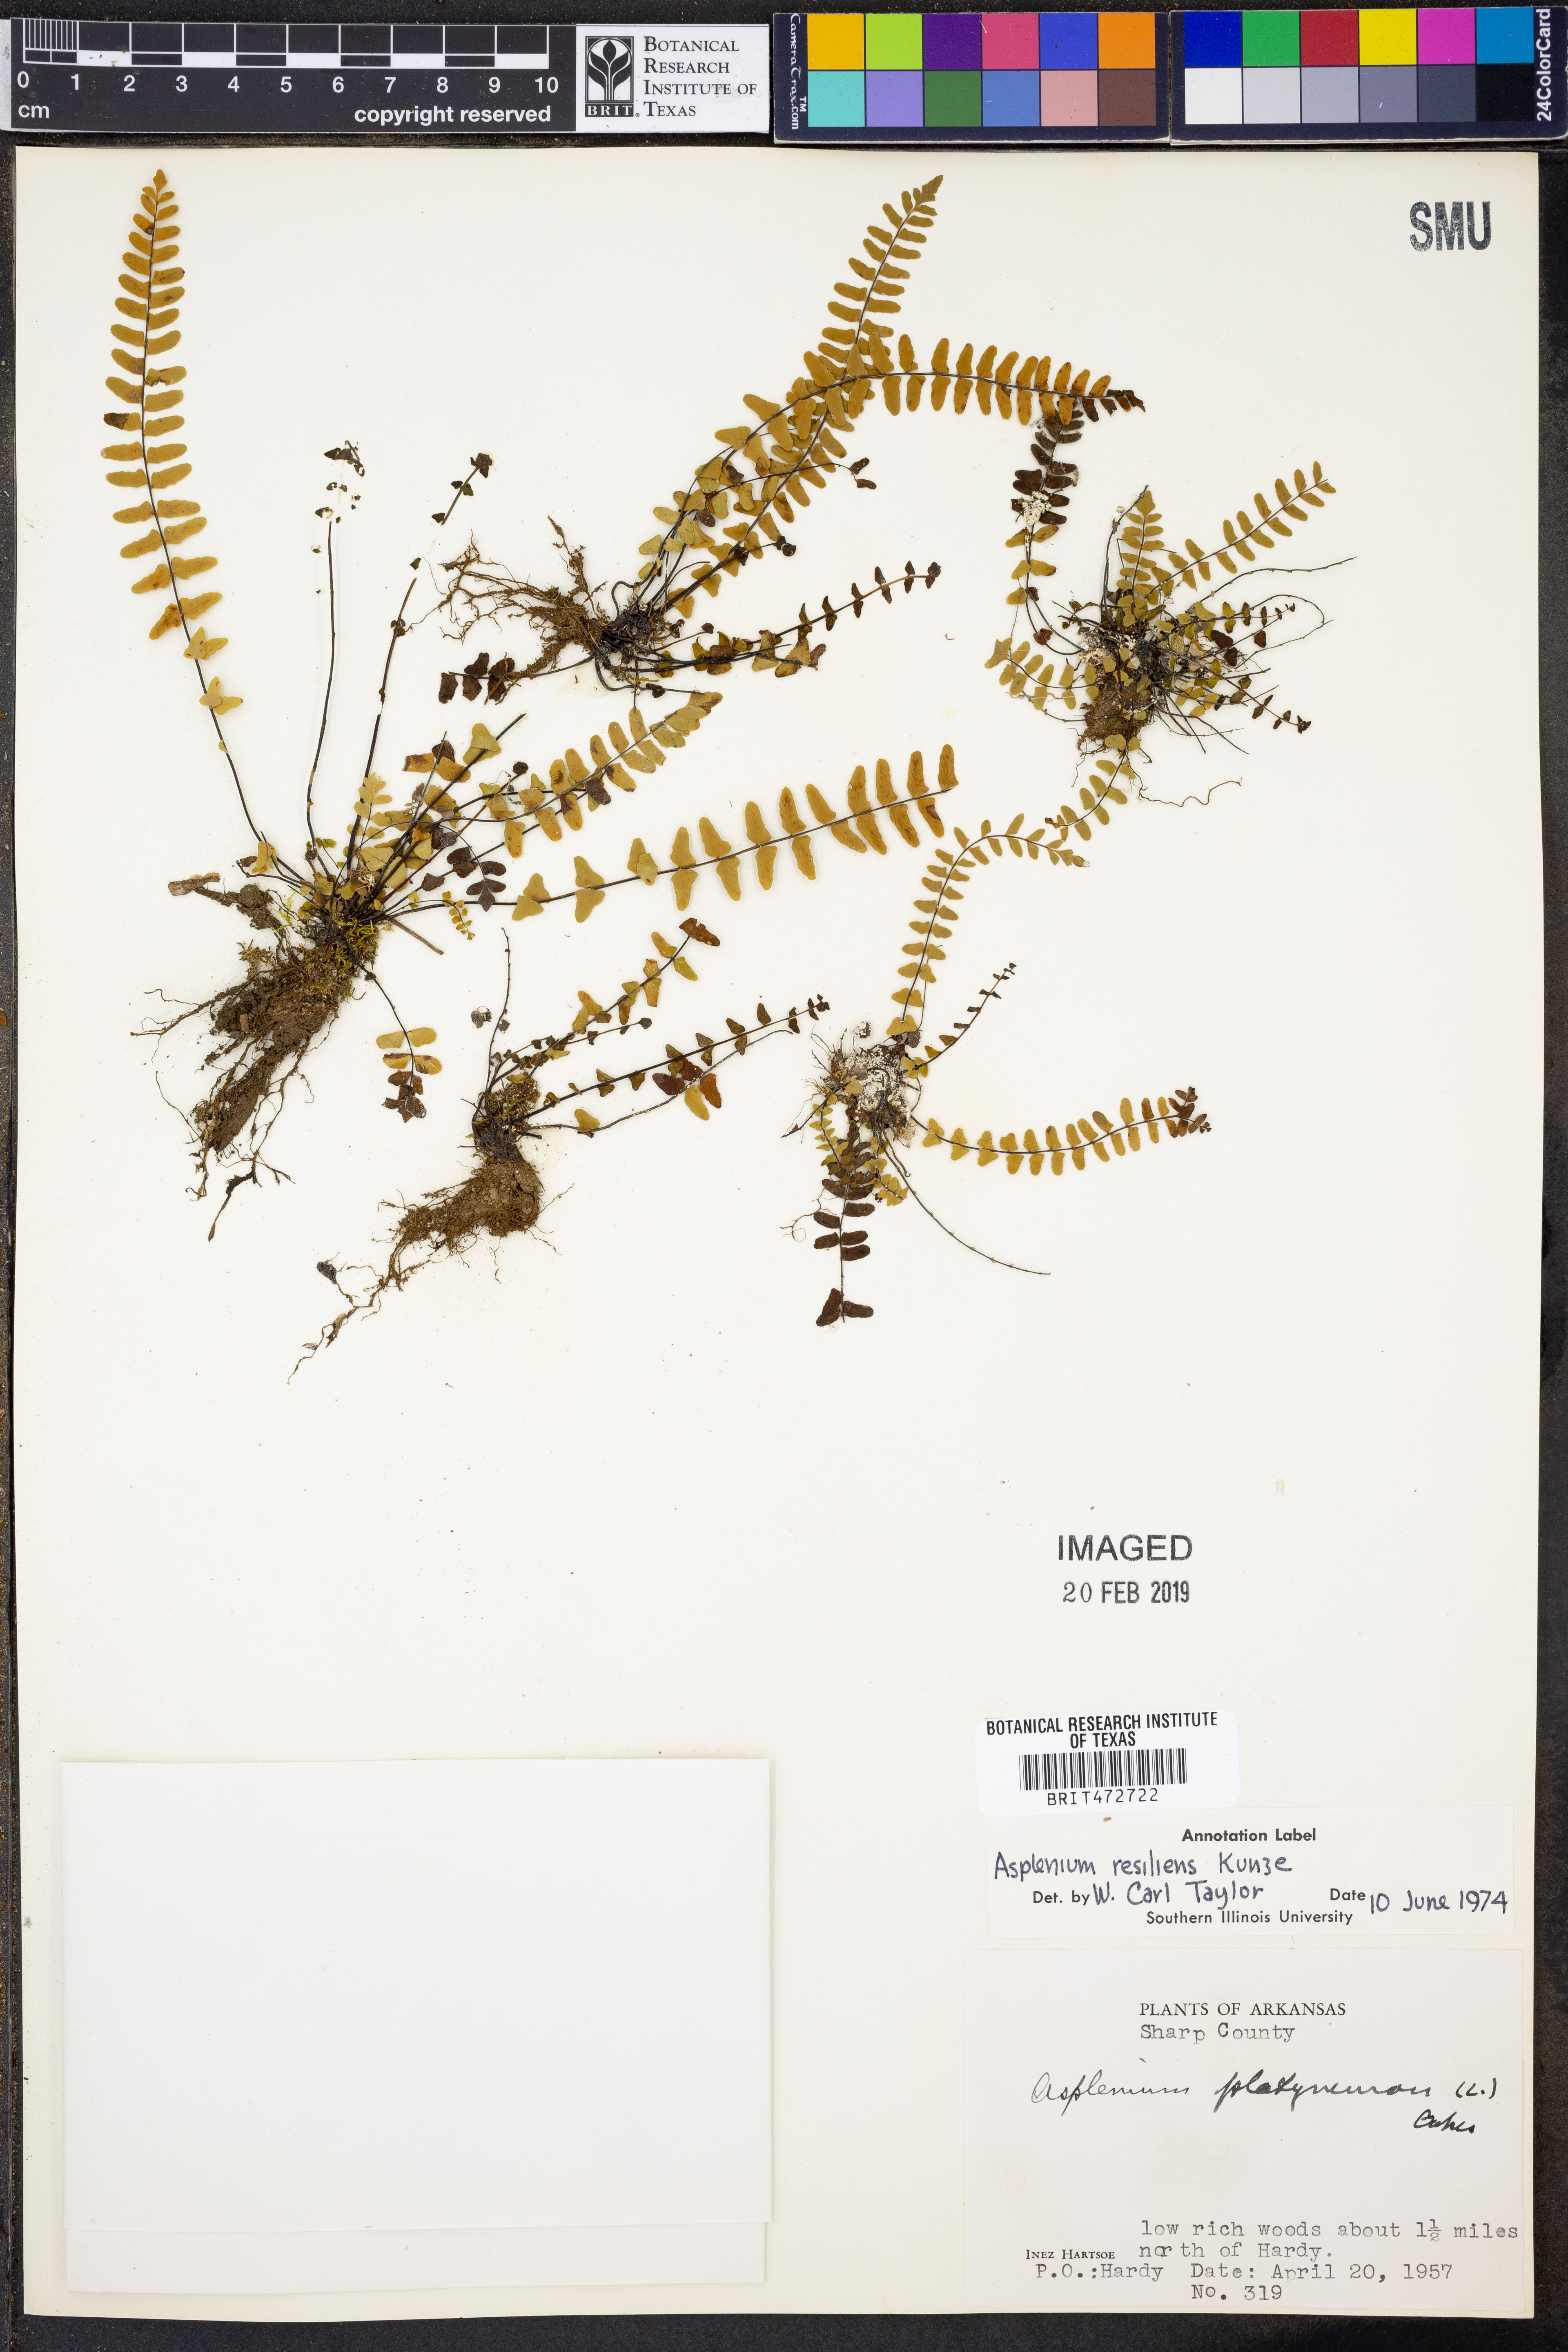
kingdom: Plantae
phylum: Tracheophyta
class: Polypodiopsida
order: Polypodiales
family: Aspleniaceae
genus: Asplenium
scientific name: Asplenium resiliens
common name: Blackstem spleenwort
